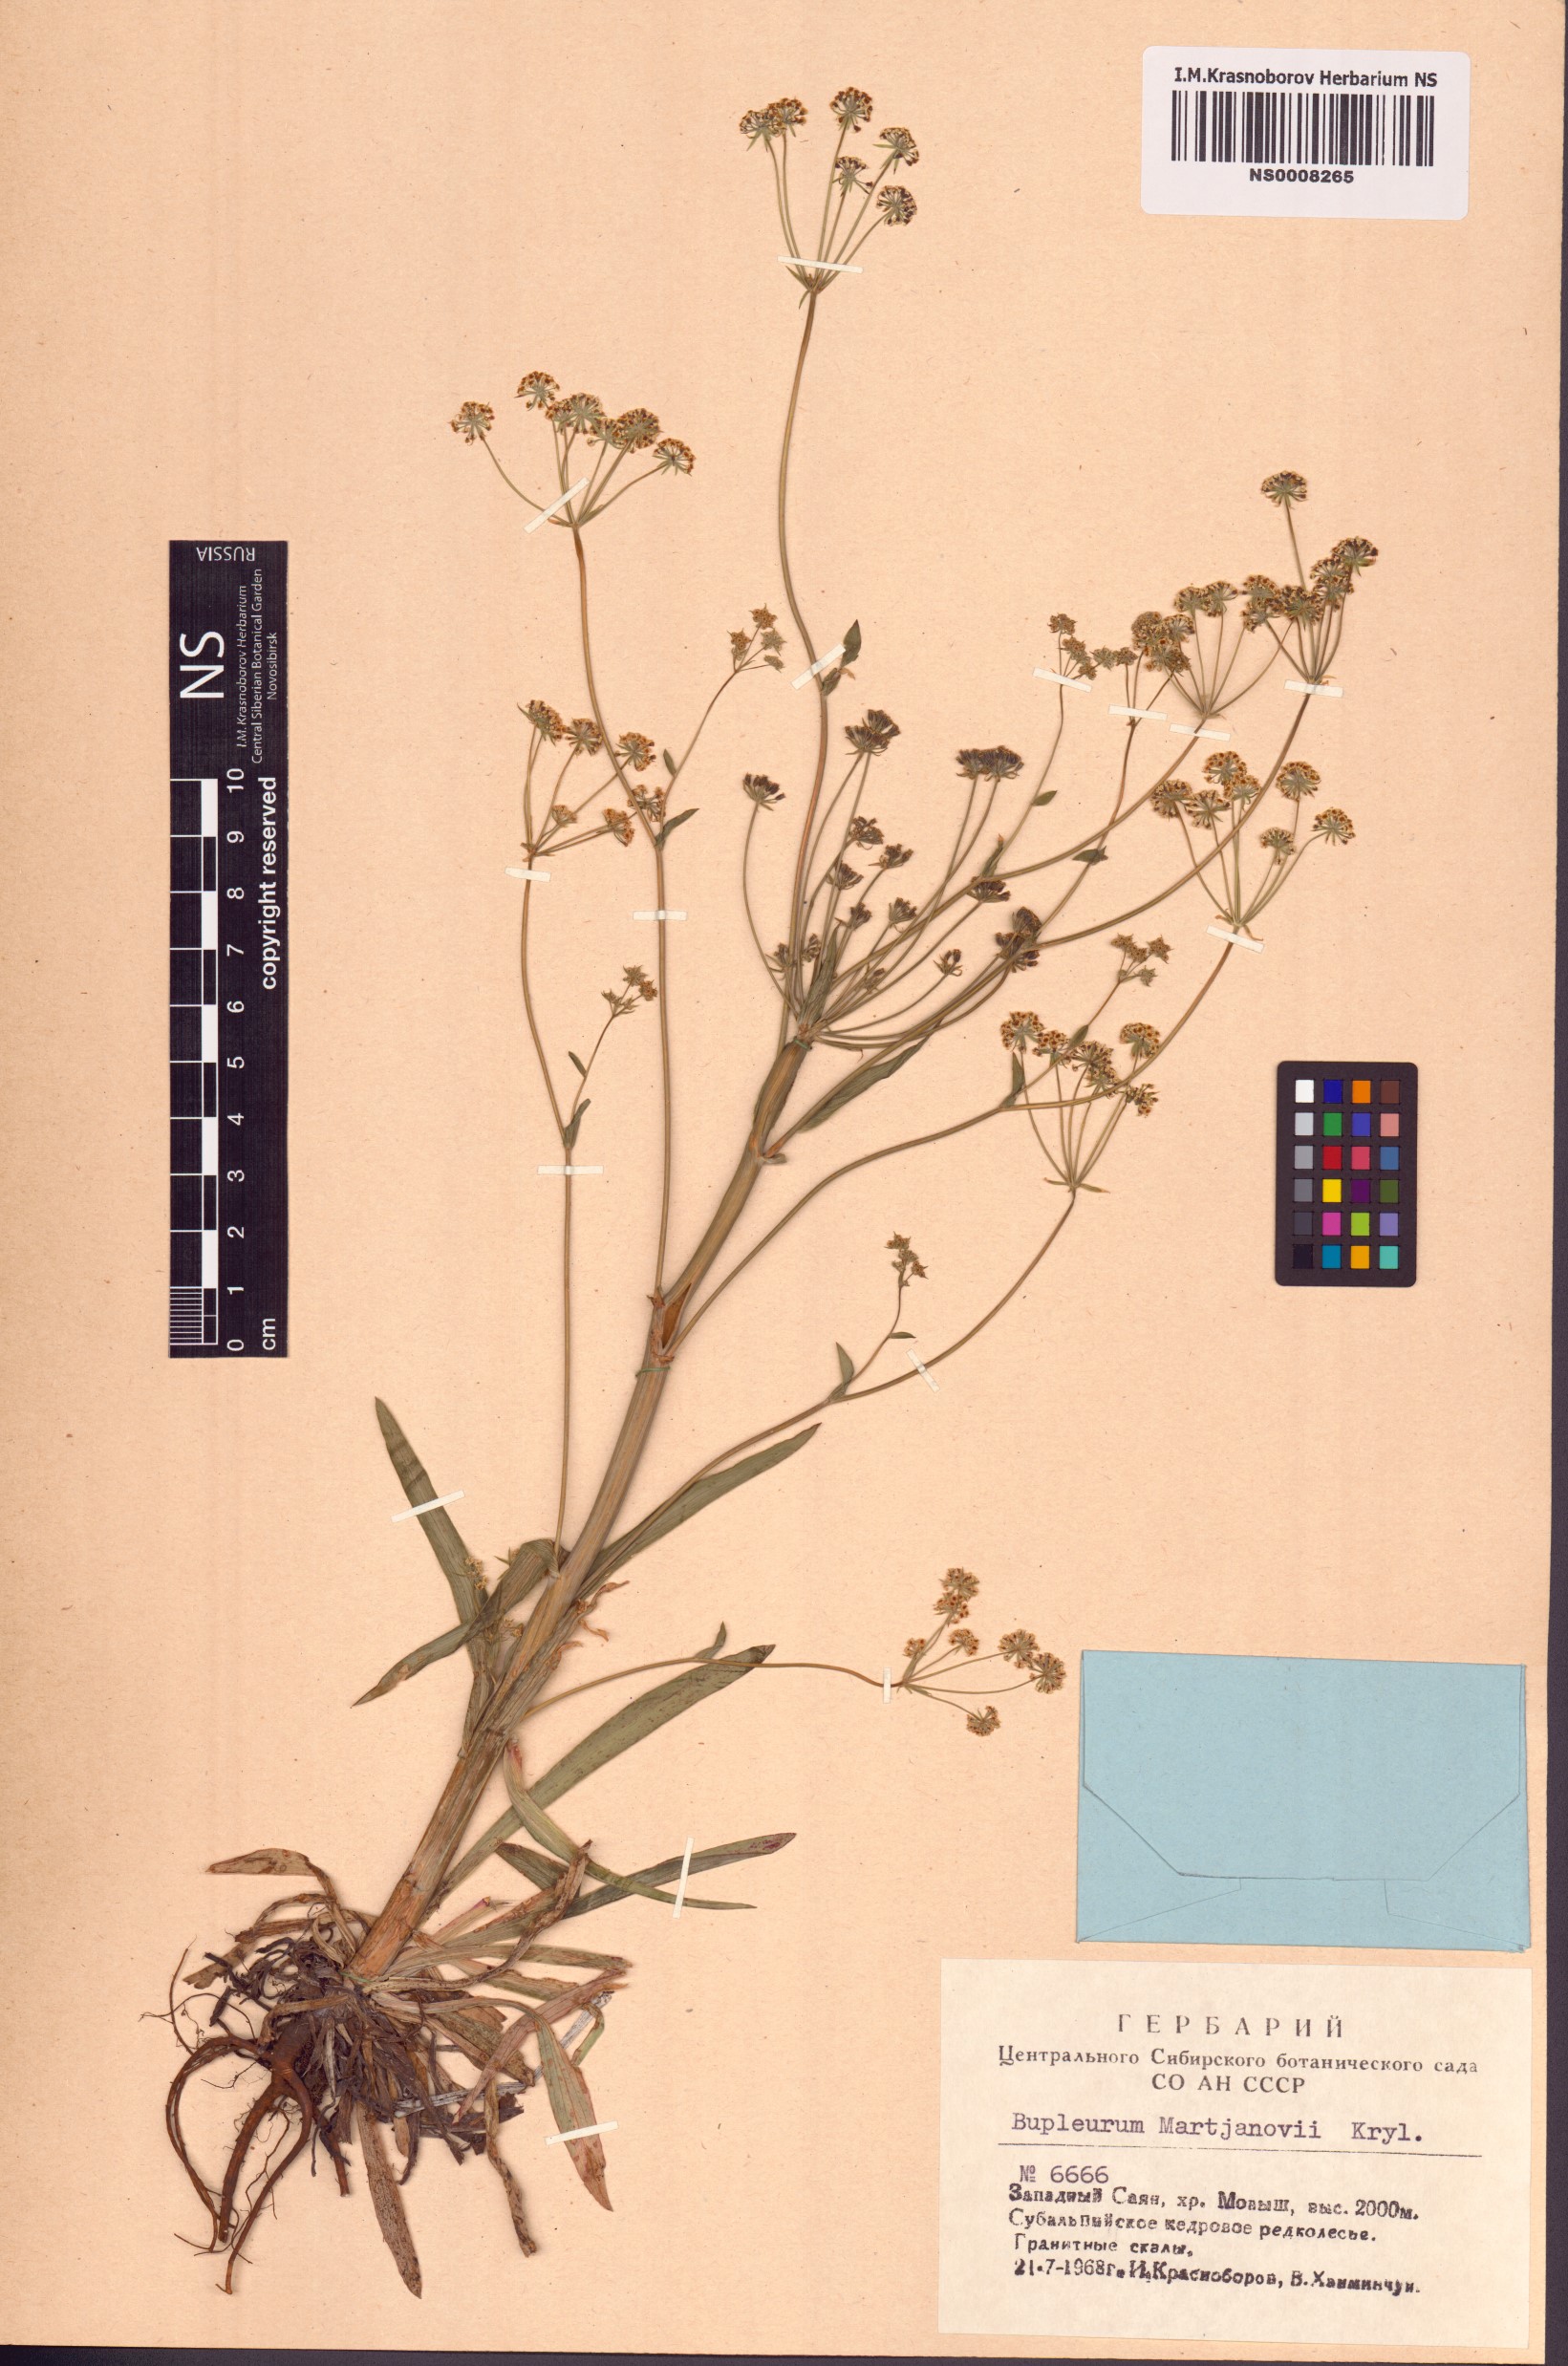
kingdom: Plantae
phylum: Tracheophyta
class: Magnoliopsida
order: Apiales
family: Apiaceae
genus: Bupleurum
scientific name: Bupleurum martjanovii
